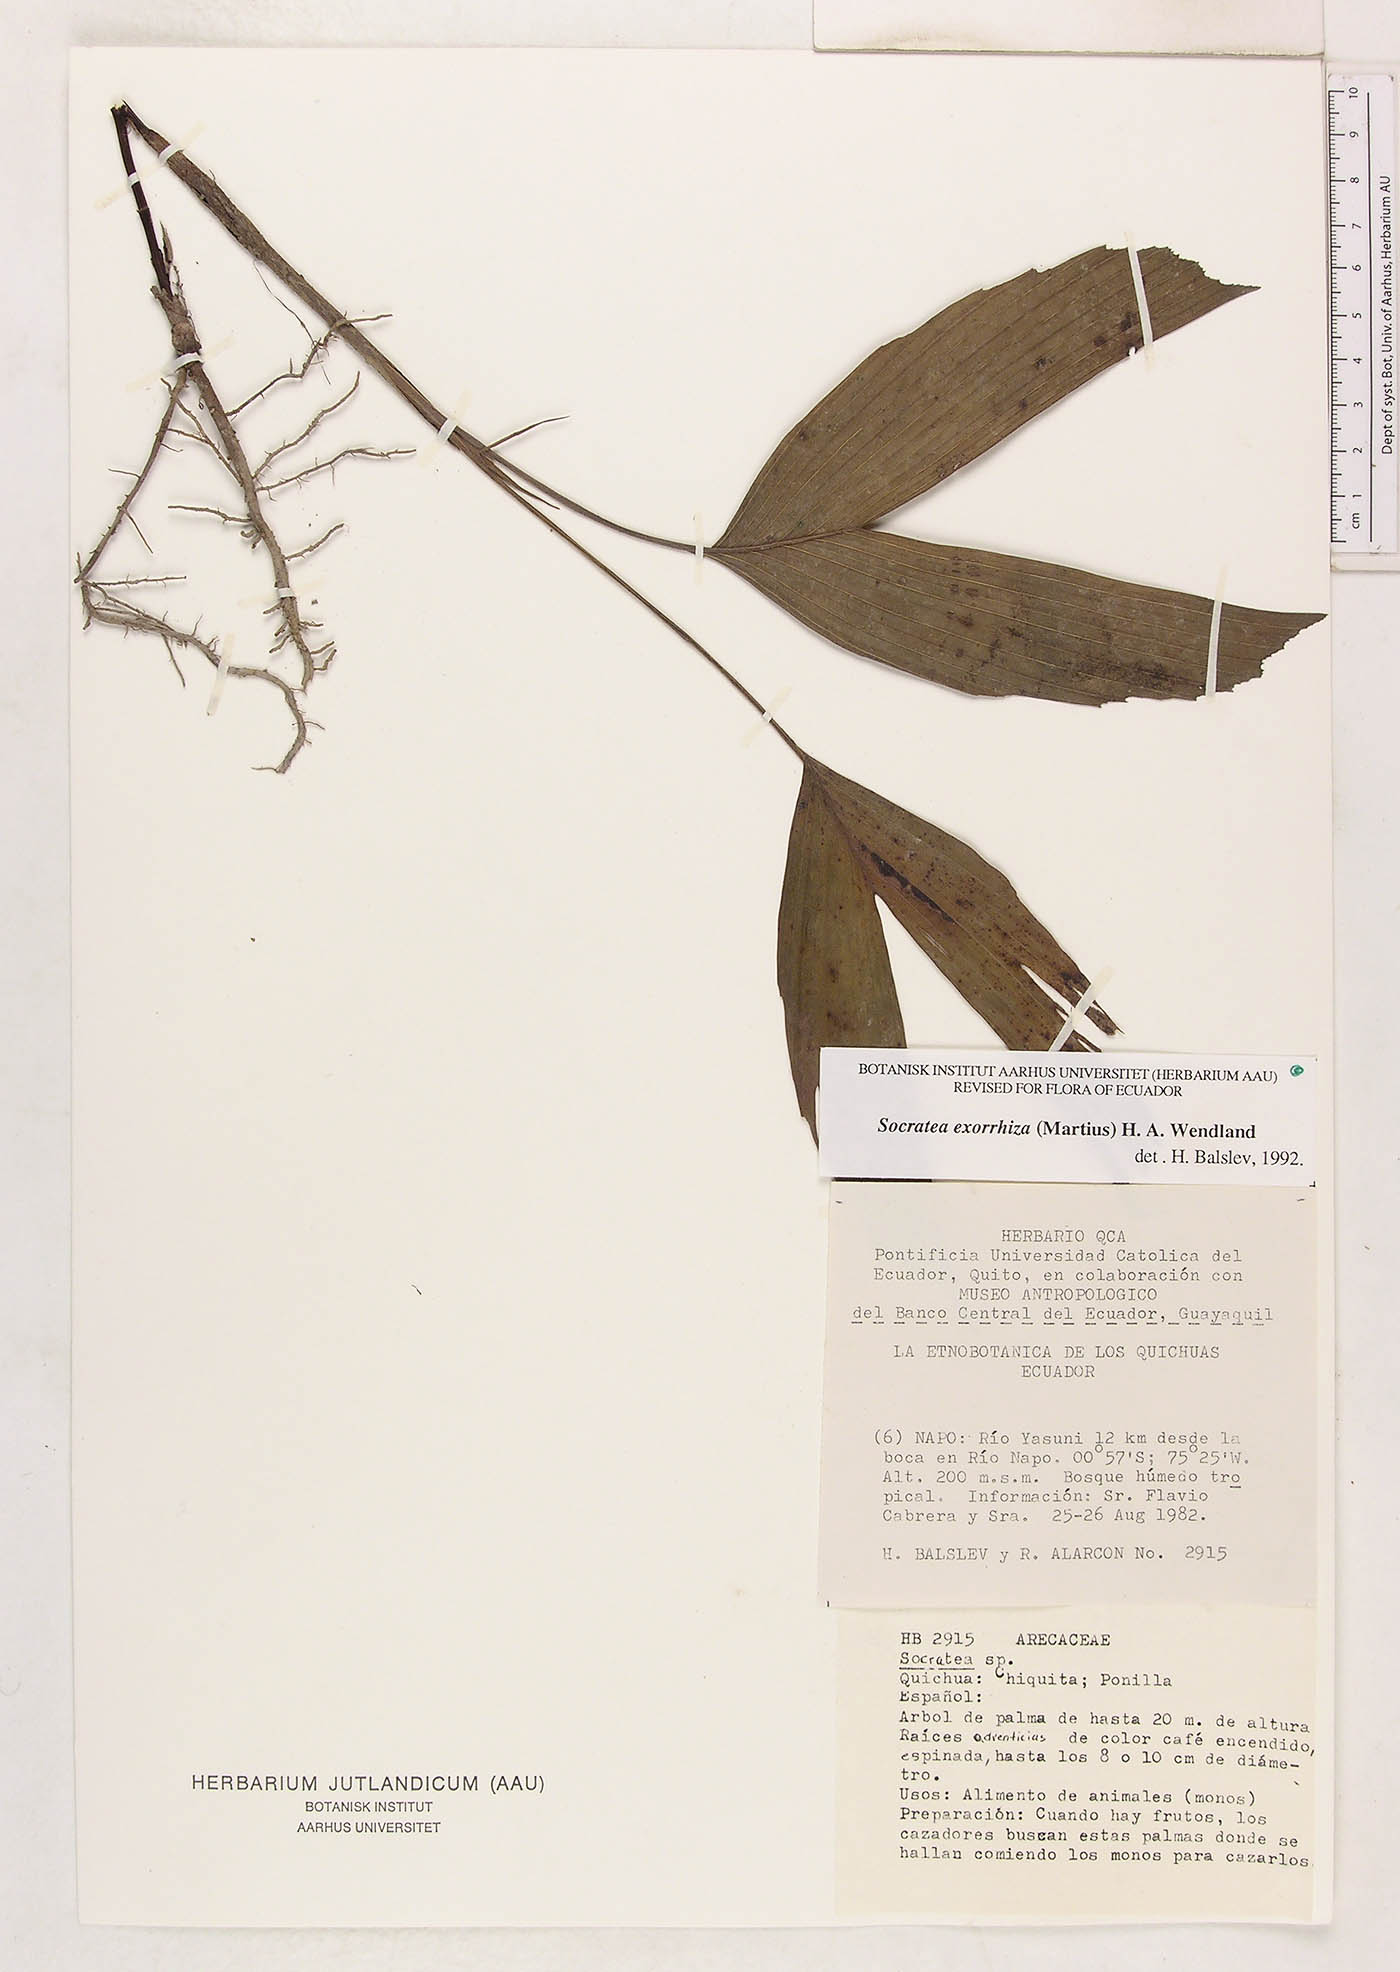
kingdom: Plantae
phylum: Tracheophyta
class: Liliopsida
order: Arecales
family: Arecaceae
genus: Socratea
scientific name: Socratea exorrhiza
